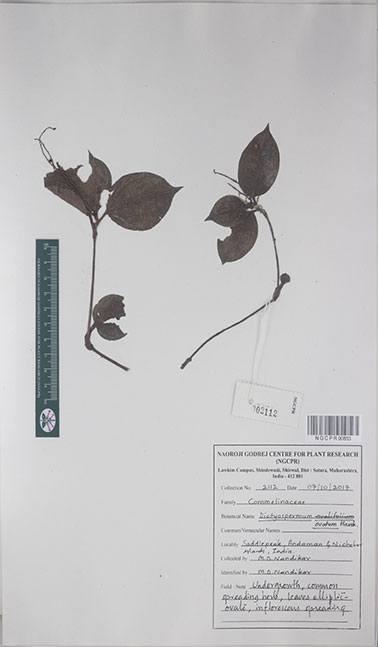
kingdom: Plantae
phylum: Tracheophyta
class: Liliopsida
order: Commelinales
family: Commelinaceae
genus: Dictyospermum
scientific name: Dictyospermum ovatum
